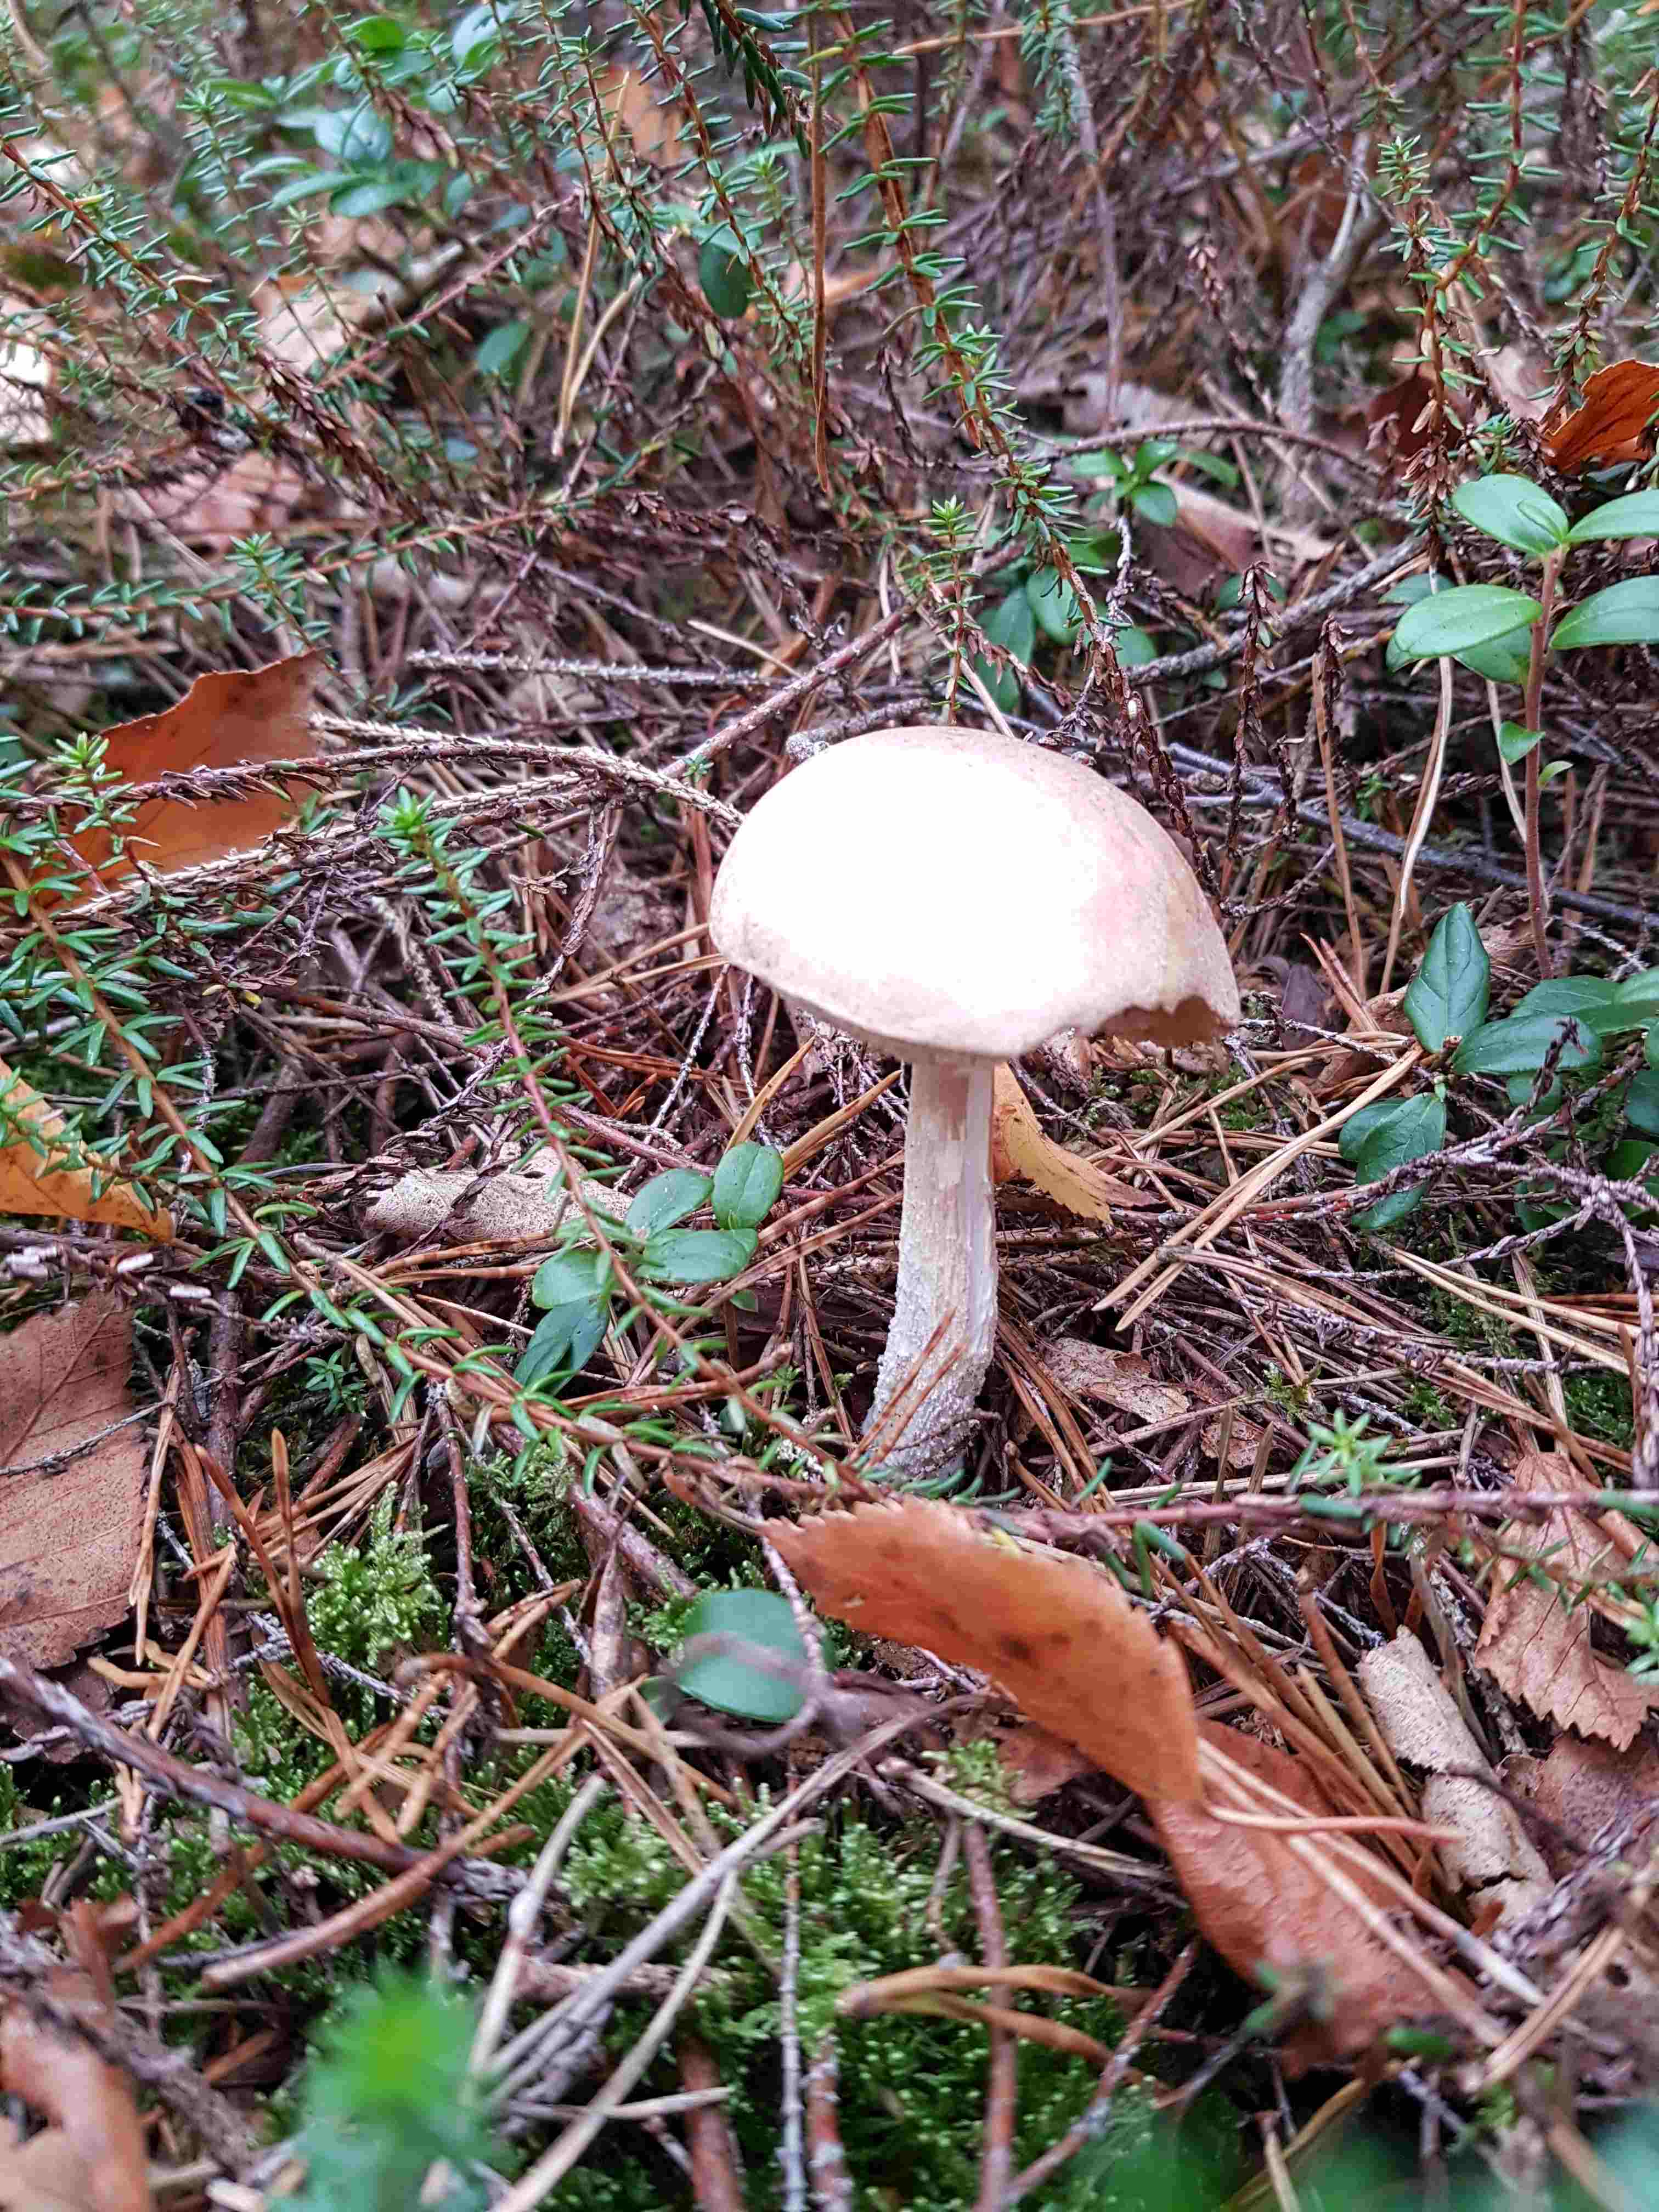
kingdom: Fungi
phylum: Basidiomycota
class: Agaricomycetes
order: Boletales
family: Boletaceae
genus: Leccinum
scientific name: Leccinum
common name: skælrørhat
